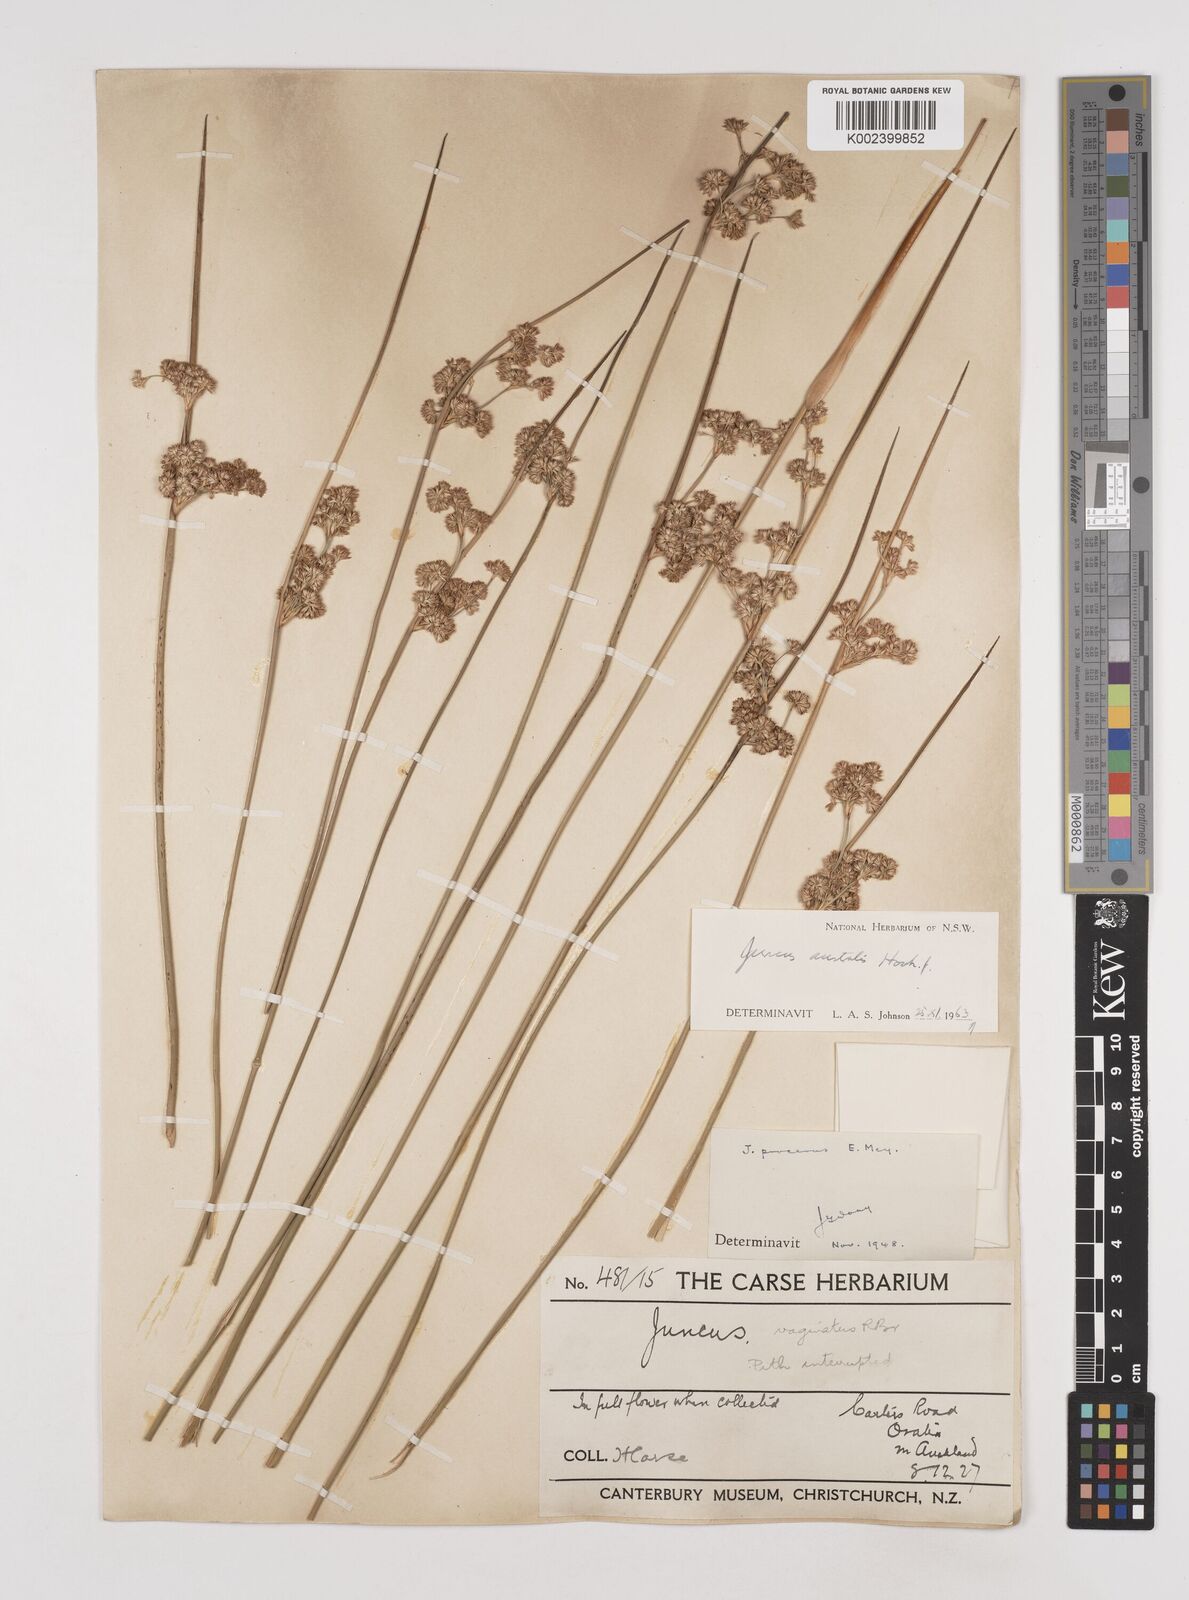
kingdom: Plantae
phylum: Tracheophyta
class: Liliopsida
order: Poales
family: Juncaceae
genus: Juncus
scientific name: Juncus australis
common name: Austral rush
